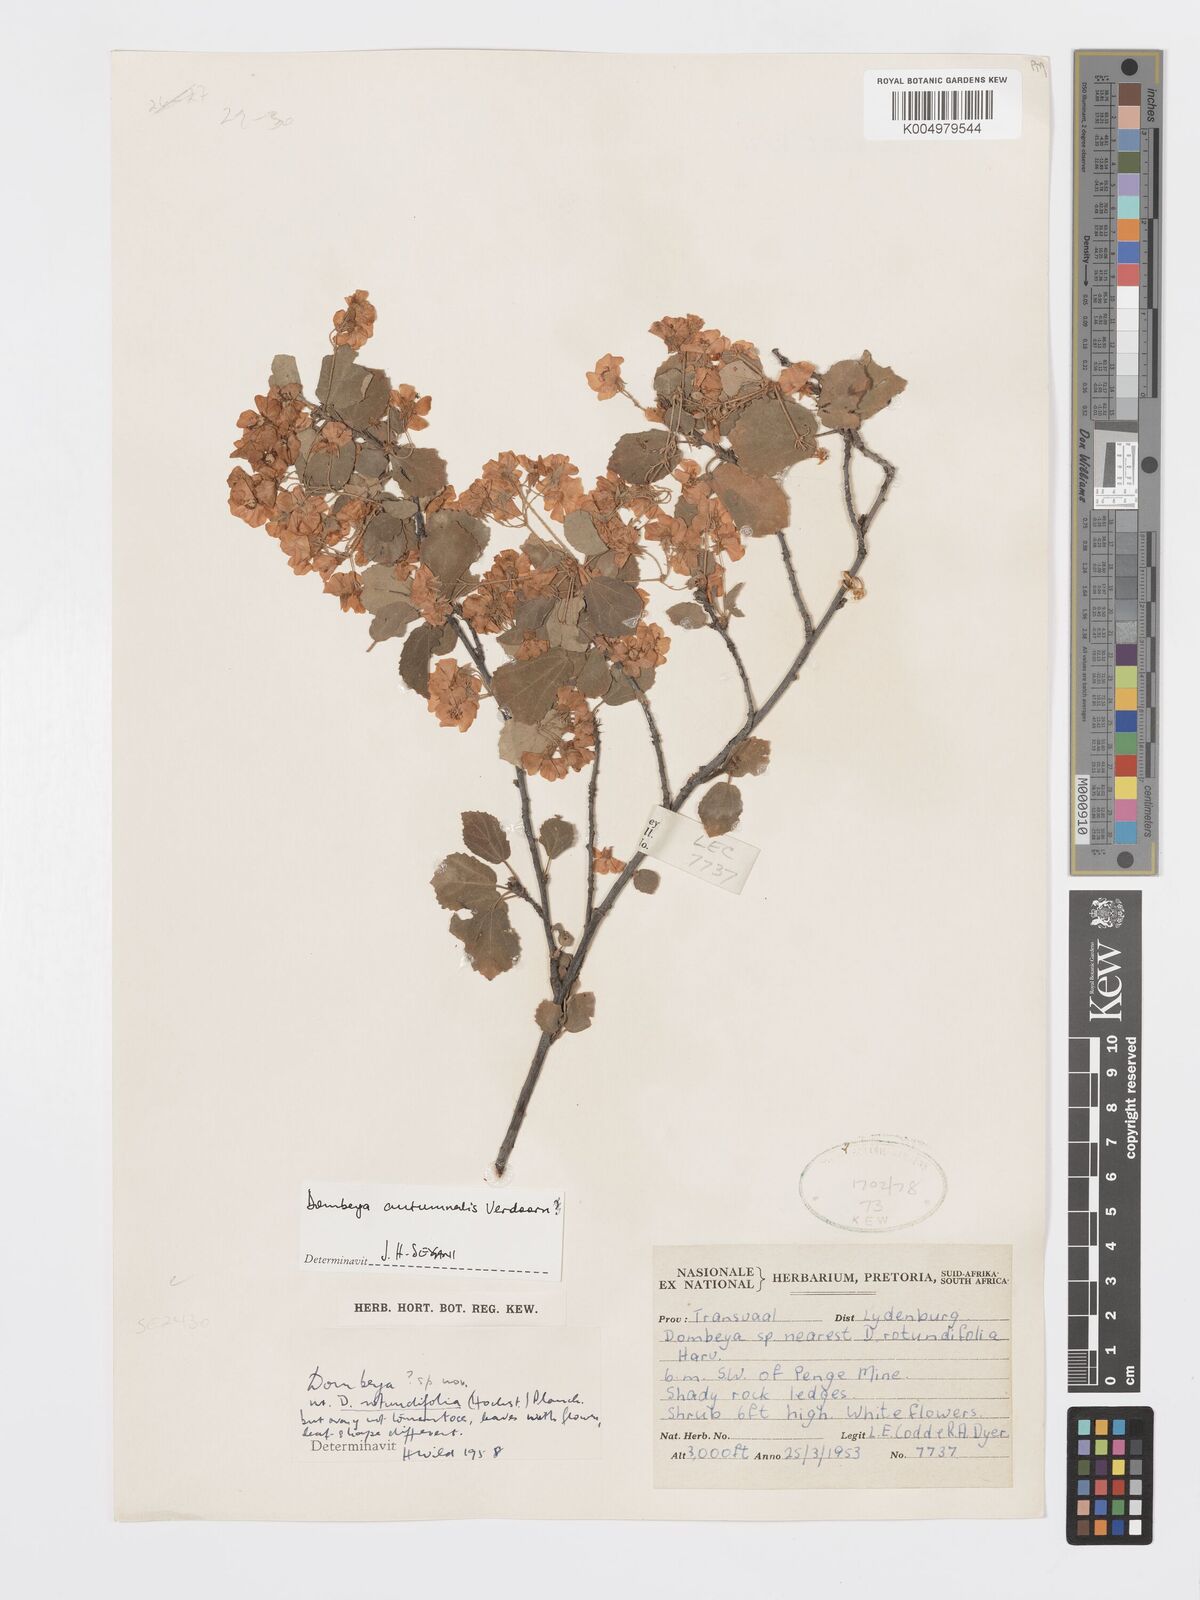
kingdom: Plantae
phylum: Tracheophyta
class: Magnoliopsida
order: Malvales
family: Malvaceae
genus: Dombeya
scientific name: Dombeya autumnalis
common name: Rock dombeya
